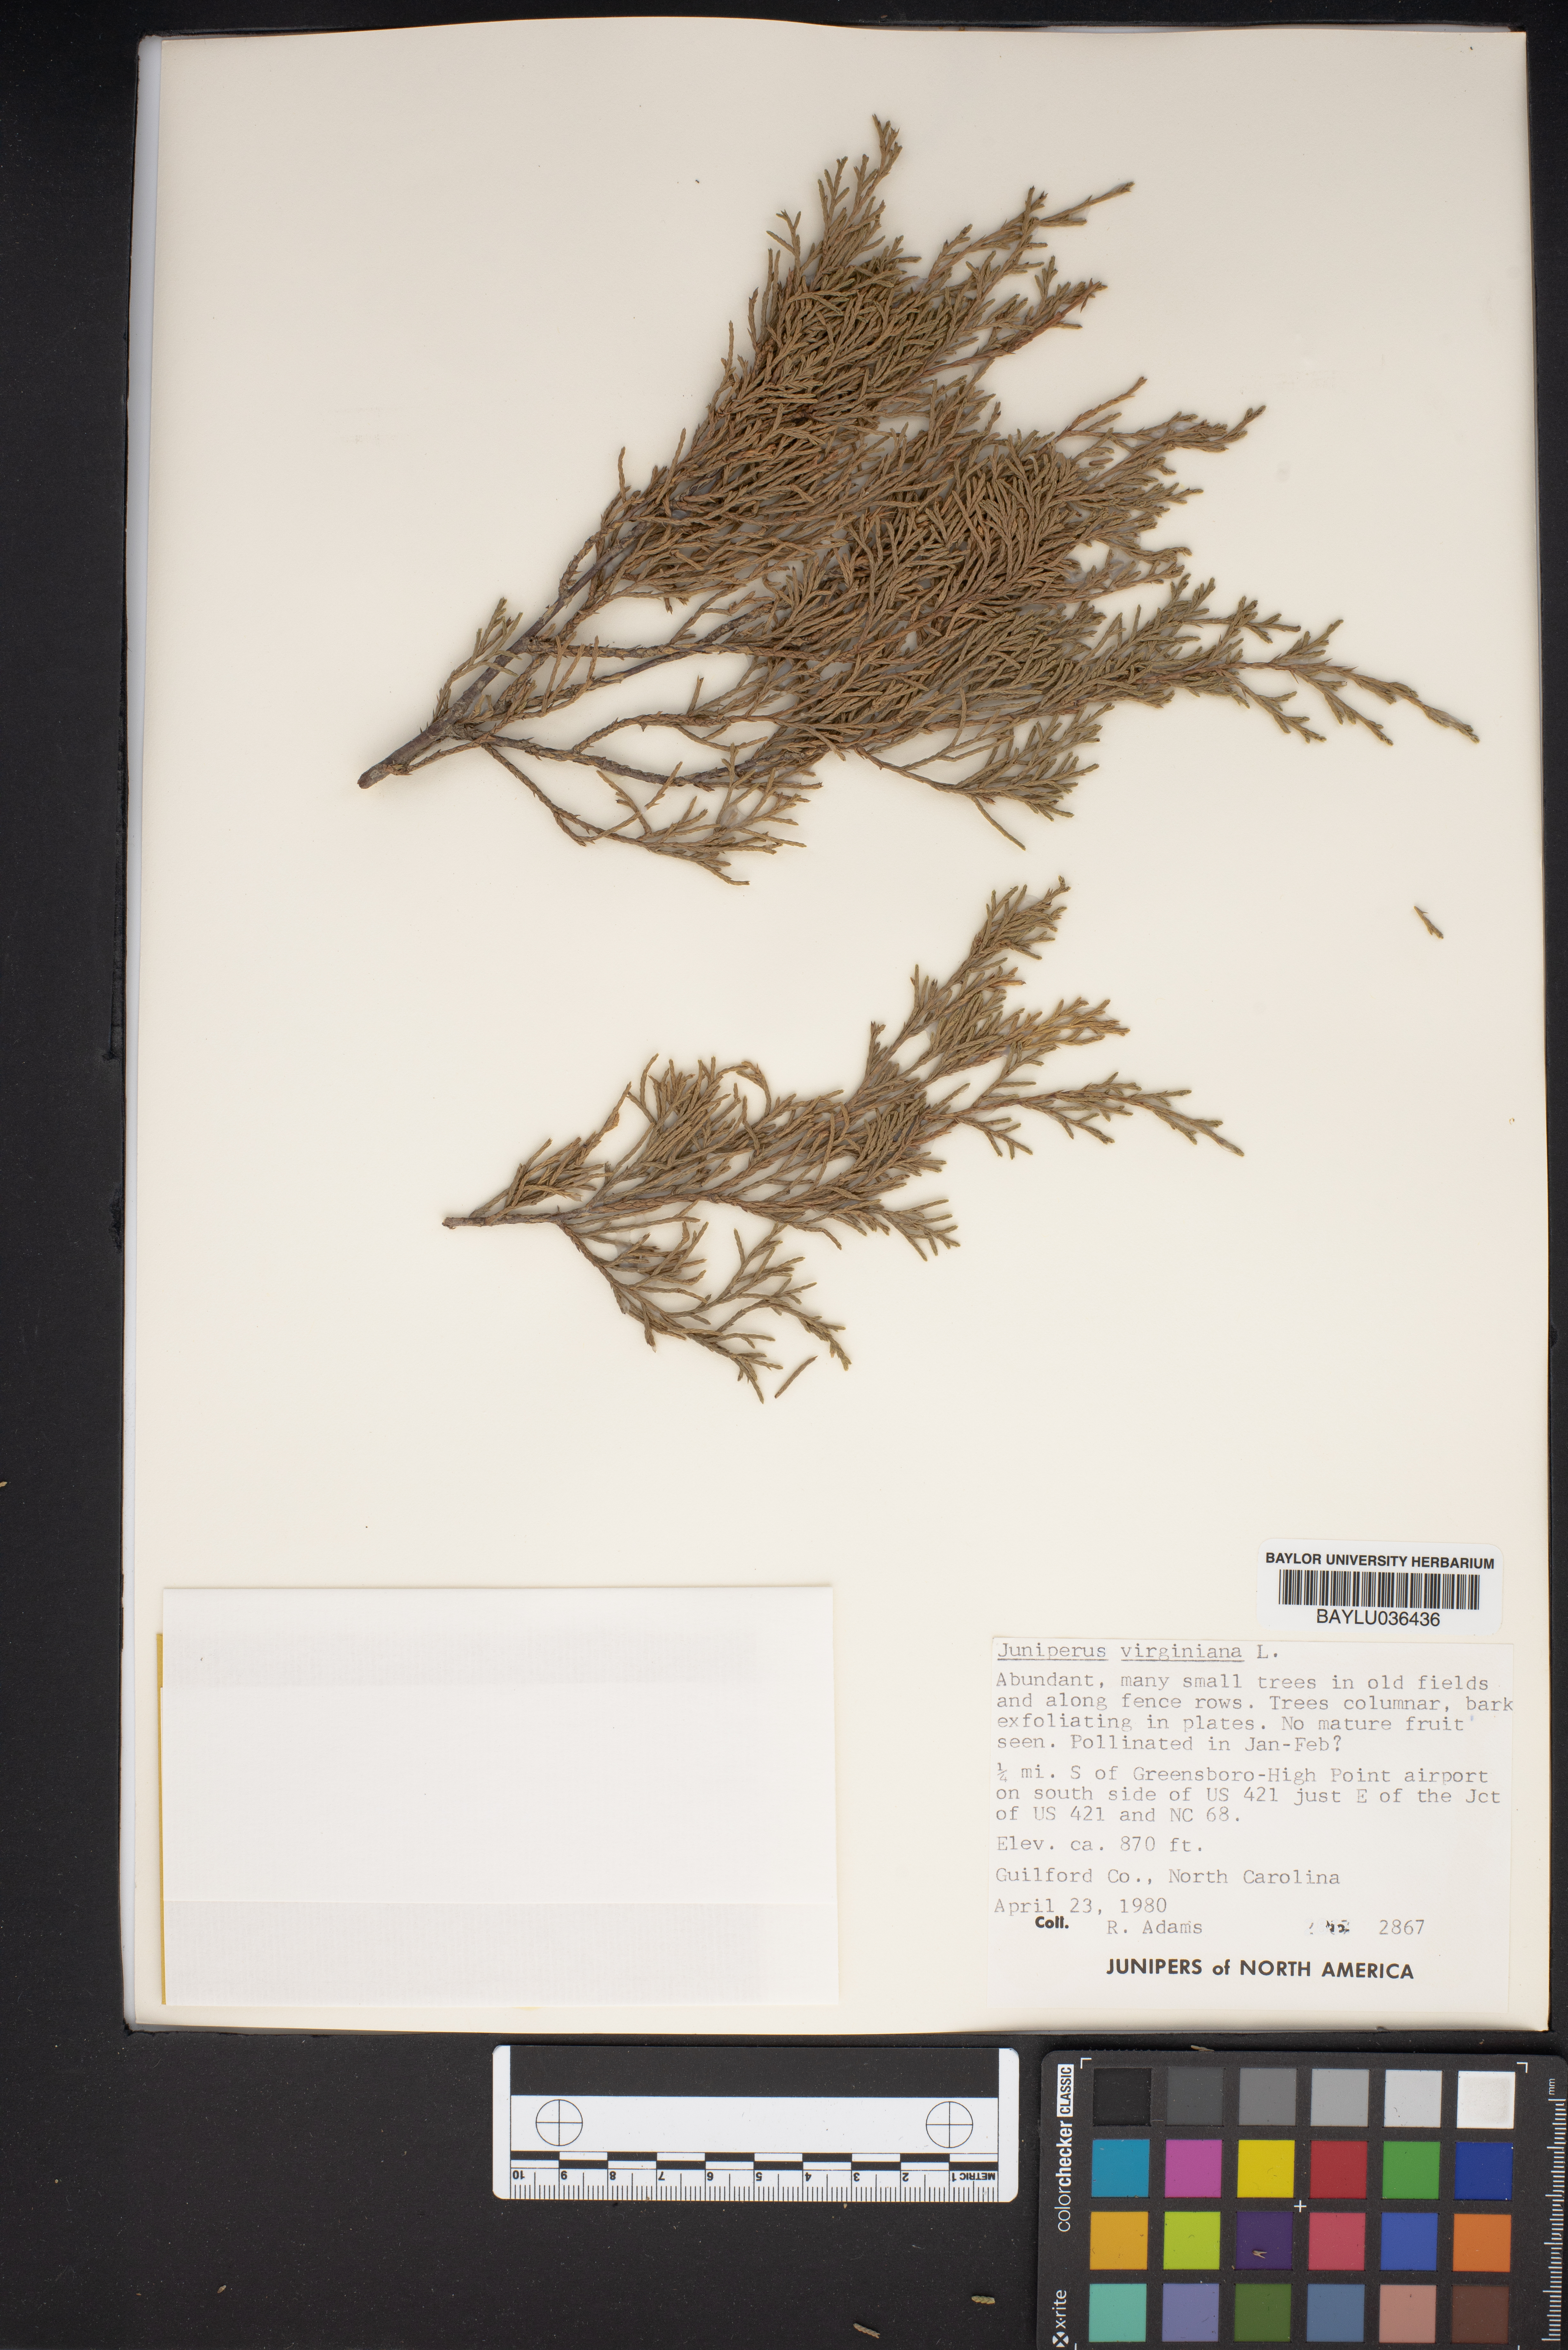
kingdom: Plantae
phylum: Tracheophyta
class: Pinopsida
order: Pinales
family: Cupressaceae
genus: Juniperus
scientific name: Juniperus virginiana
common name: Red juniper
